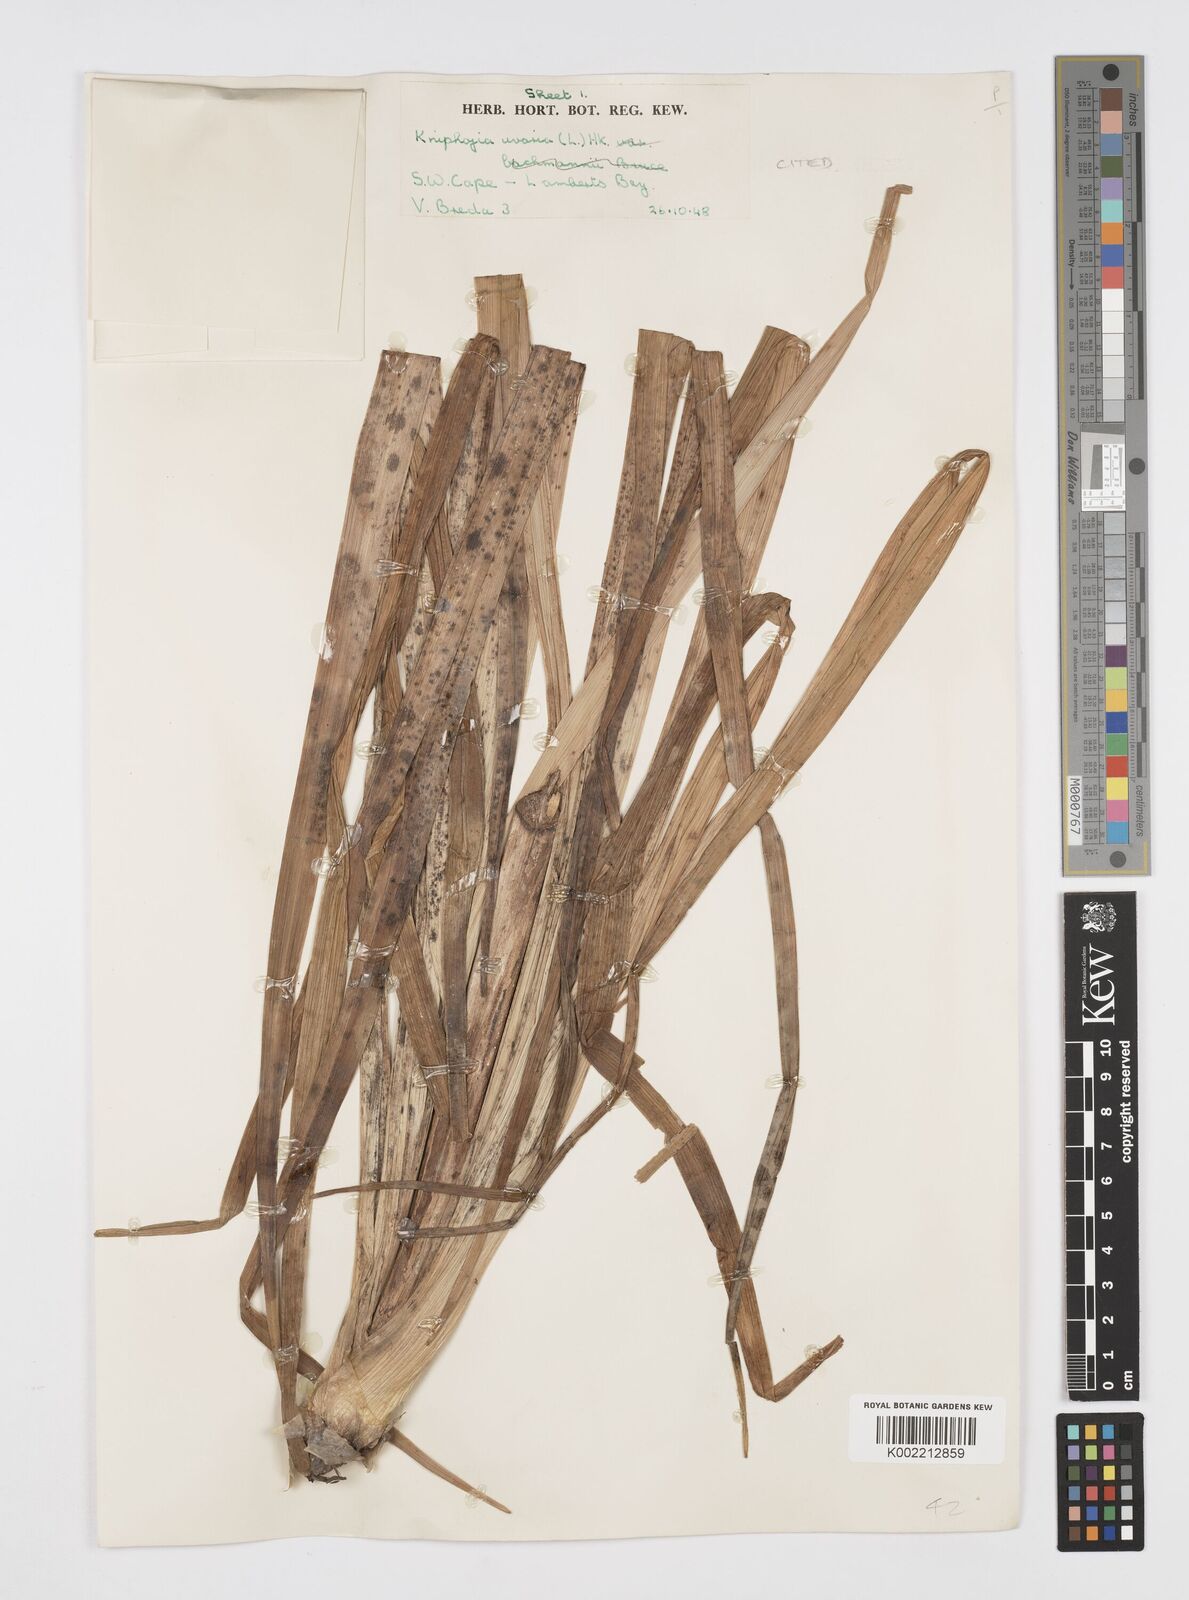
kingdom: Plantae
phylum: Tracheophyta
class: Liliopsida
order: Asparagales
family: Asphodelaceae
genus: Kniphofia
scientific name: Kniphofia uvaria
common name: Red-hot-poker
